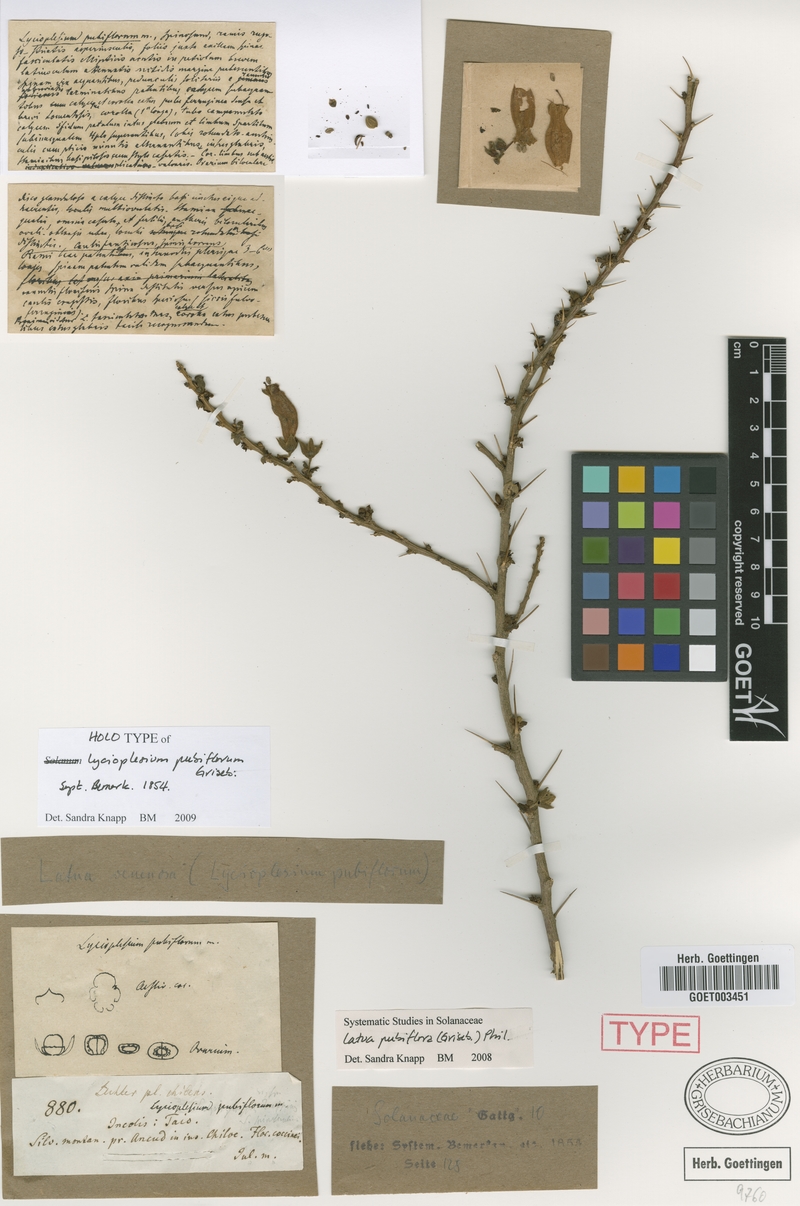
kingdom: Plantae
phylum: Tracheophyta
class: Magnoliopsida
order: Solanales
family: Solanaceae
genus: Latua
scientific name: Latua pubiflora
